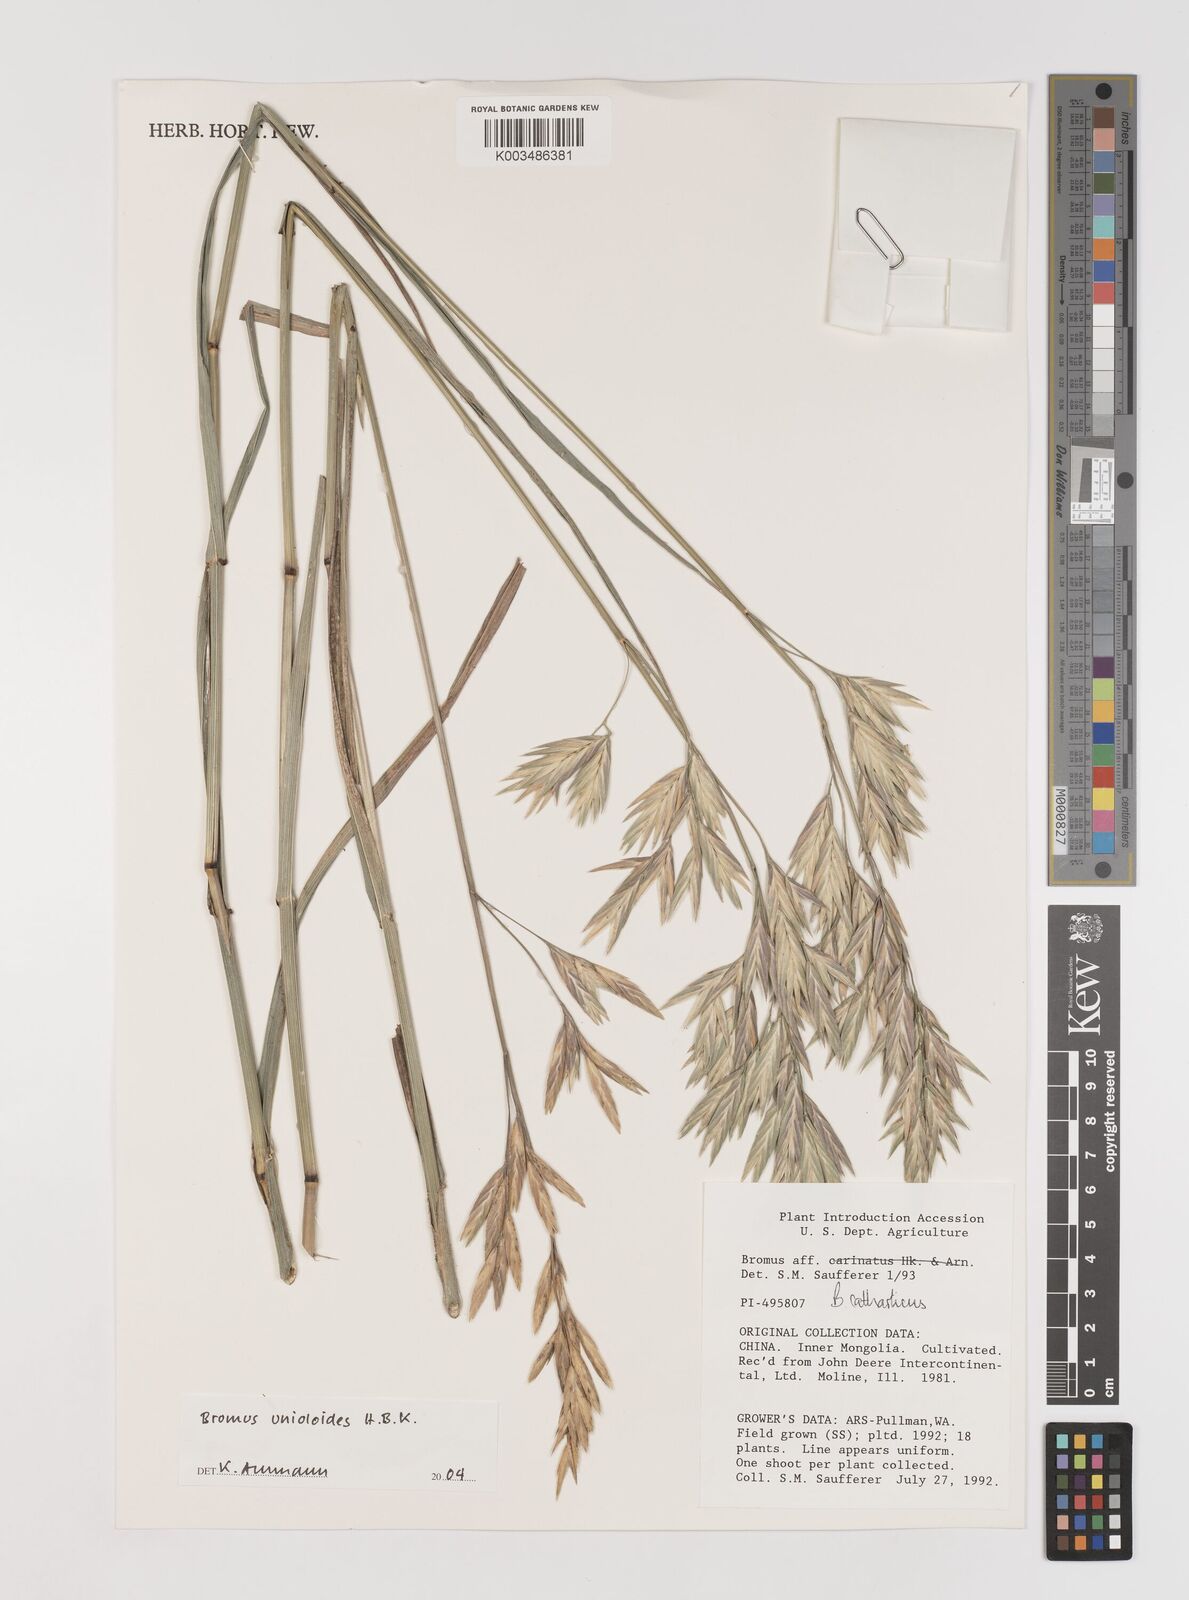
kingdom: Plantae
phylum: Tracheophyta
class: Liliopsida
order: Poales
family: Poaceae
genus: Bromus
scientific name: Bromus catharticus
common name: Rescuegrass
